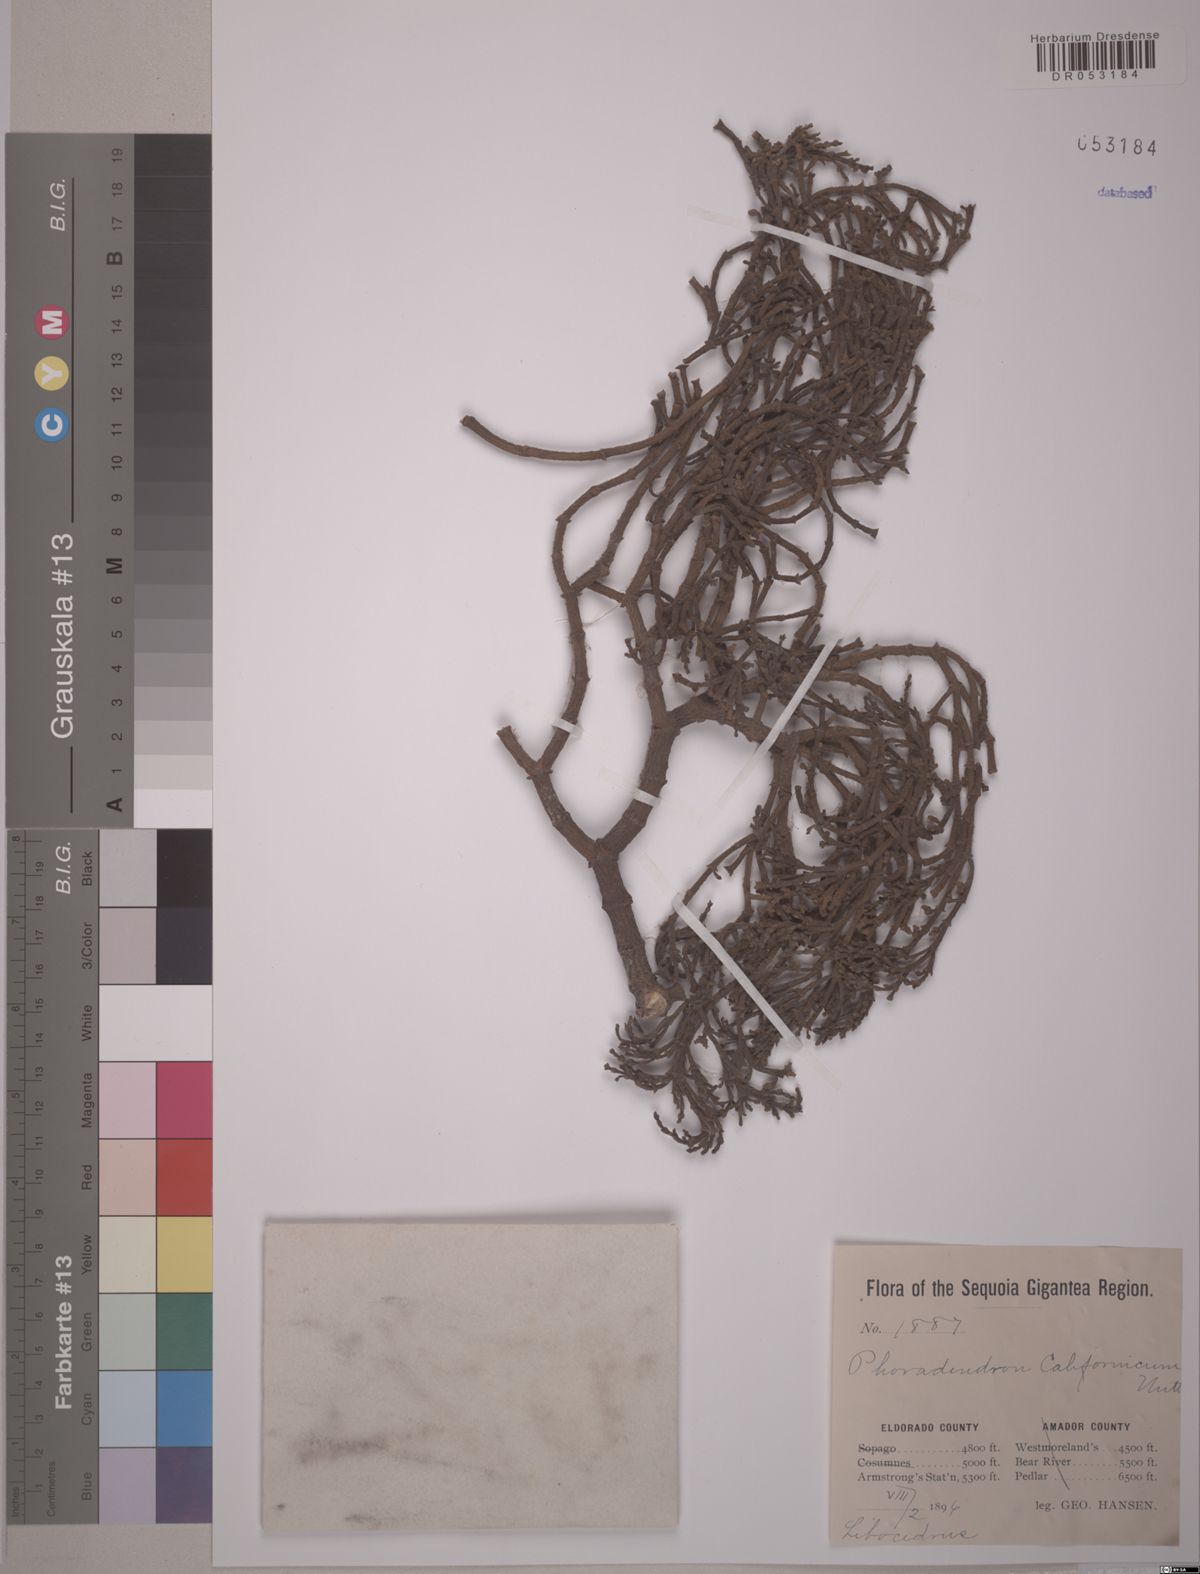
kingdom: Plantae
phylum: Tracheophyta
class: Magnoliopsida
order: Santalales
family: Viscaceae
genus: Phoradendron
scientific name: Phoradendron californicum
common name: Acacia mistletoe
